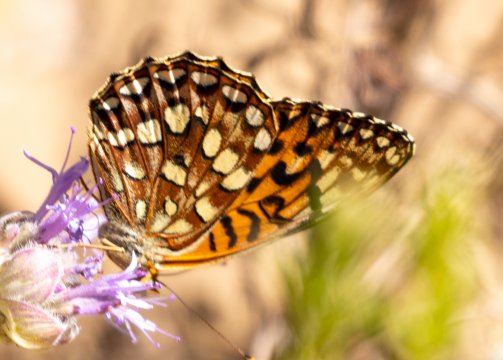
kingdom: Animalia
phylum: Arthropoda
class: Insecta
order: Lepidoptera
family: Nymphalidae
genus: Speyeria
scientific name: Speyeria hydaspe
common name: Hydaspe Fritillary
